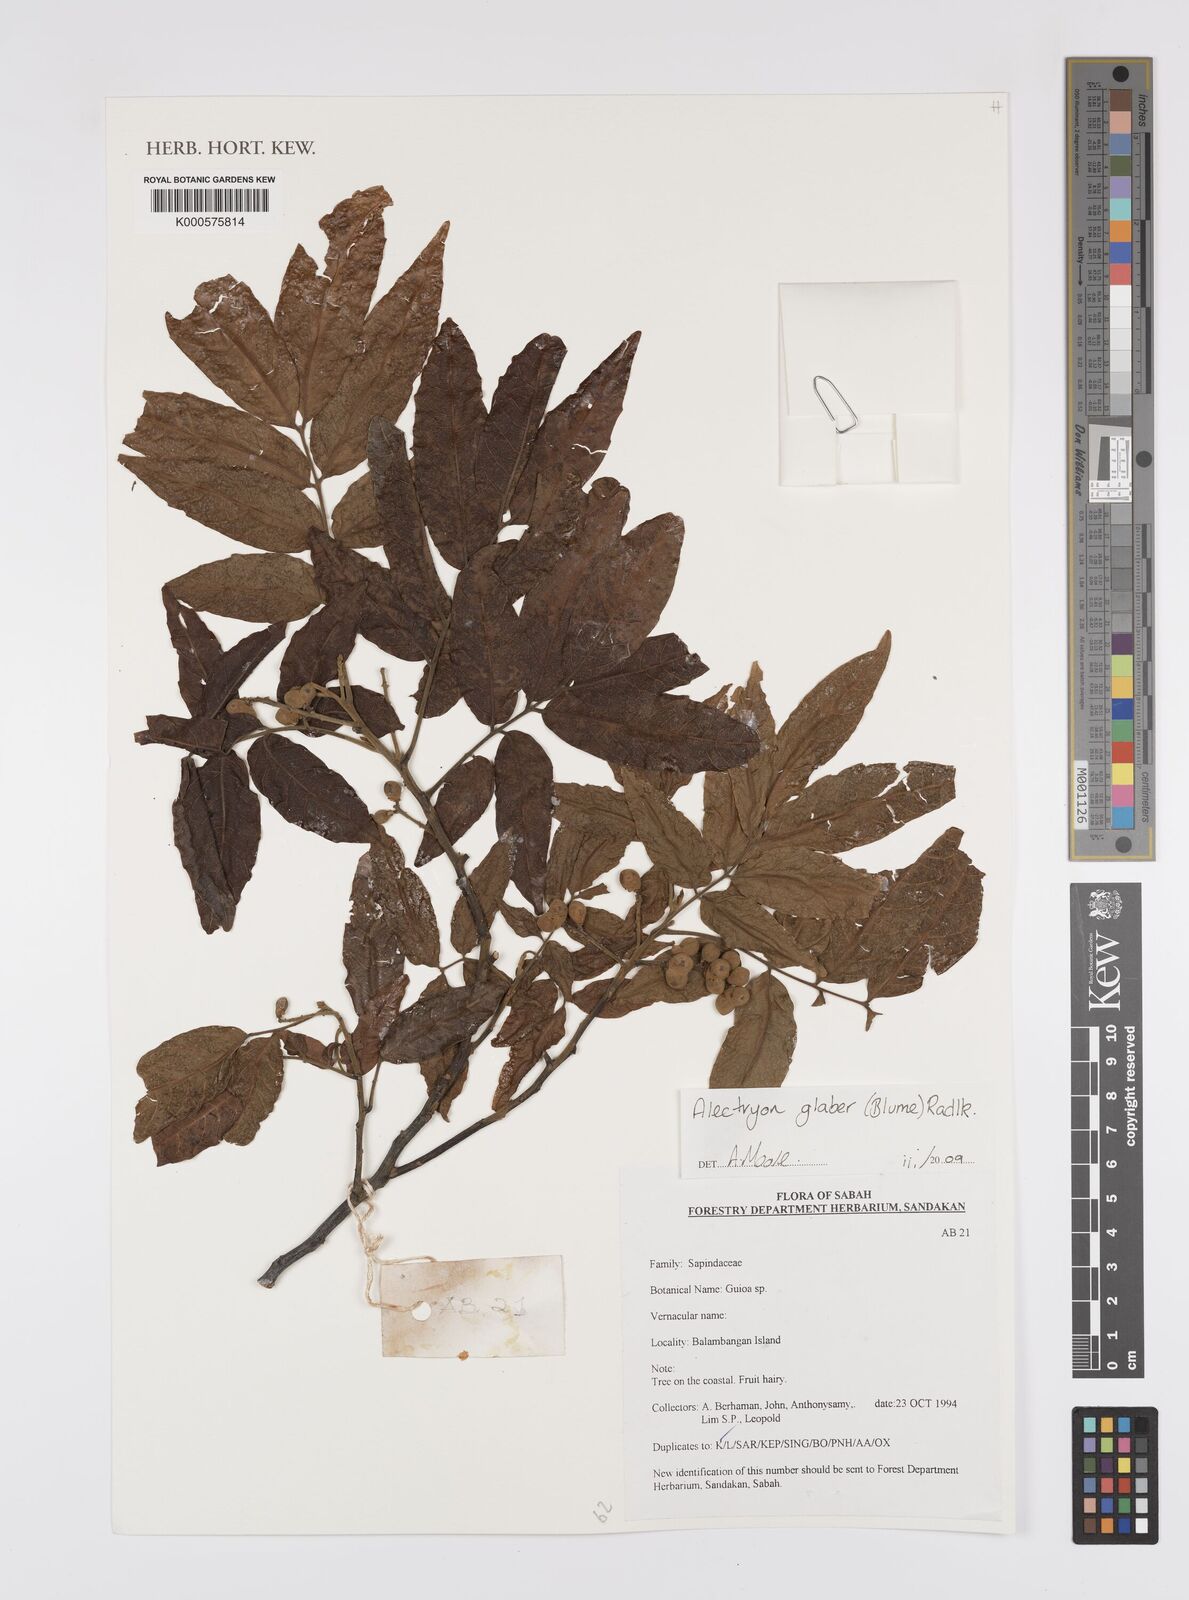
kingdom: Plantae
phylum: Tracheophyta
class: Magnoliopsida
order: Sapindales
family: Sapindaceae
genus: Alectryon
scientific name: Alectryon glaber
